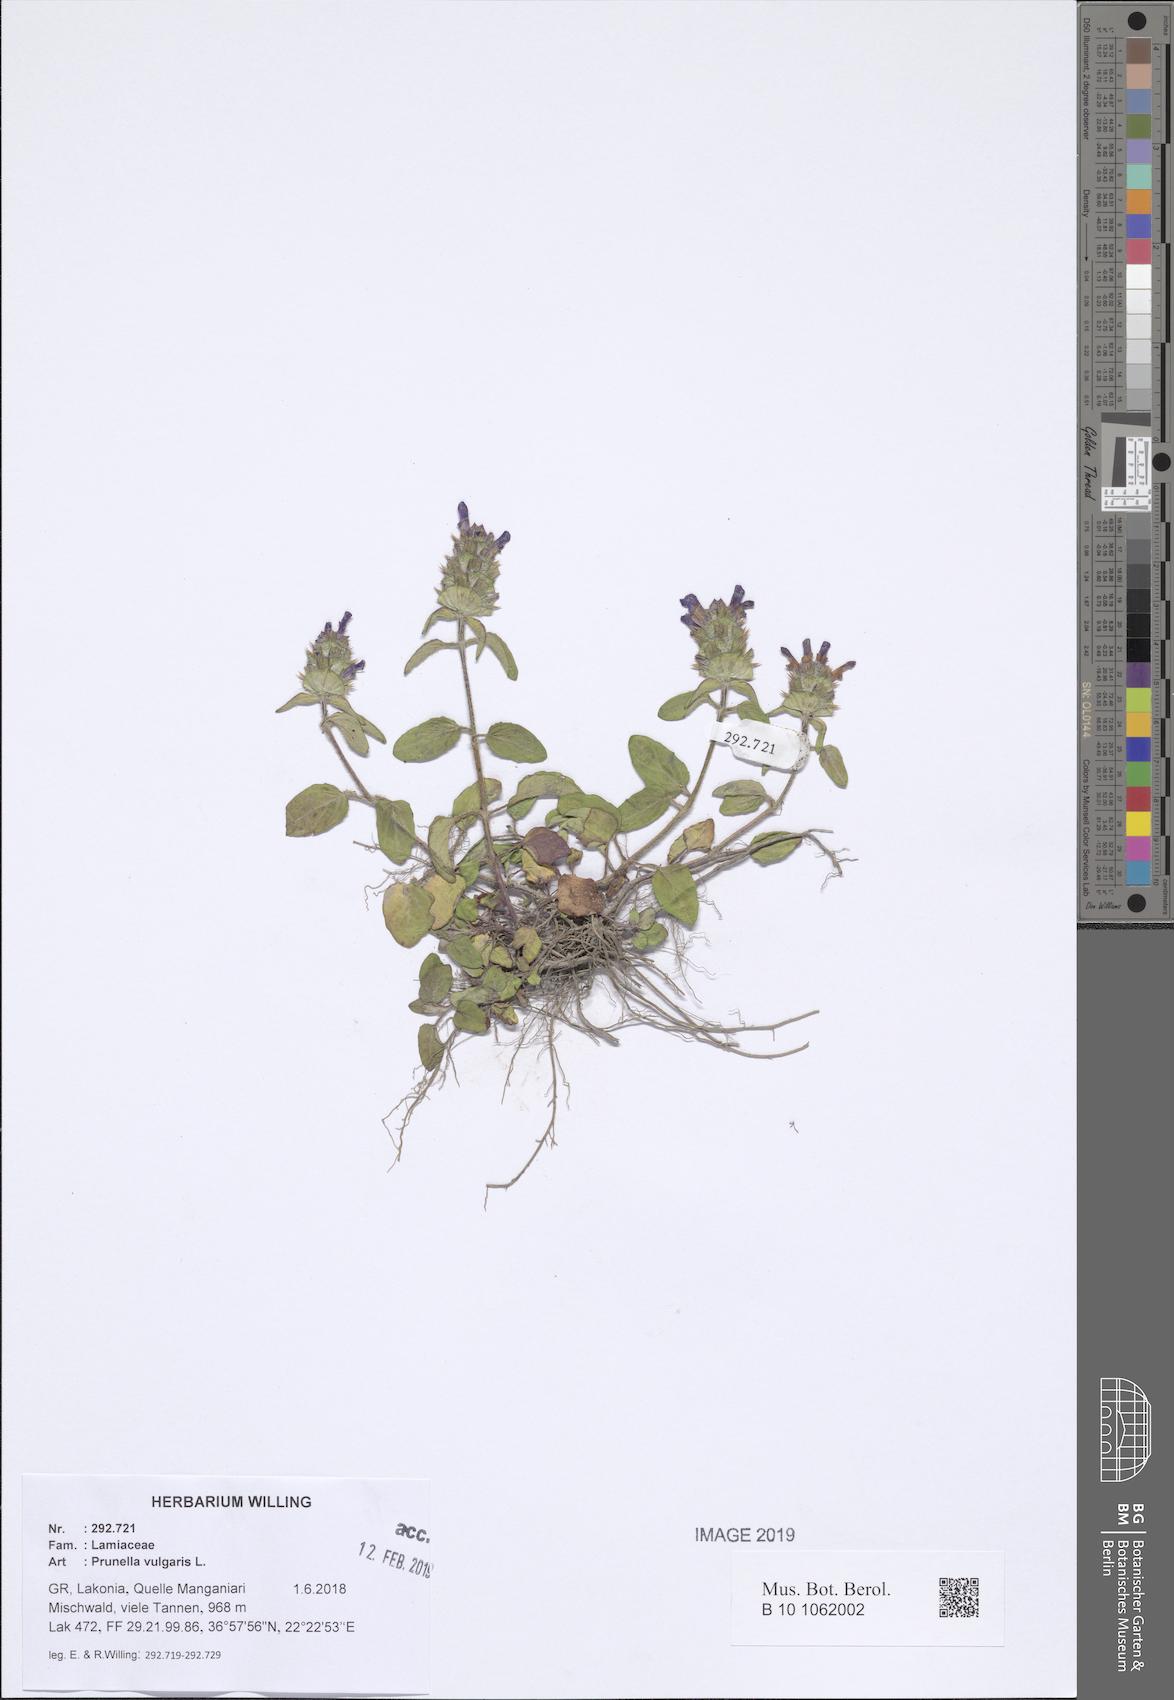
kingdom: Plantae
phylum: Tracheophyta
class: Magnoliopsida
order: Lamiales
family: Lamiaceae
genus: Prunella
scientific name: Prunella vulgaris
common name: Heal-all
